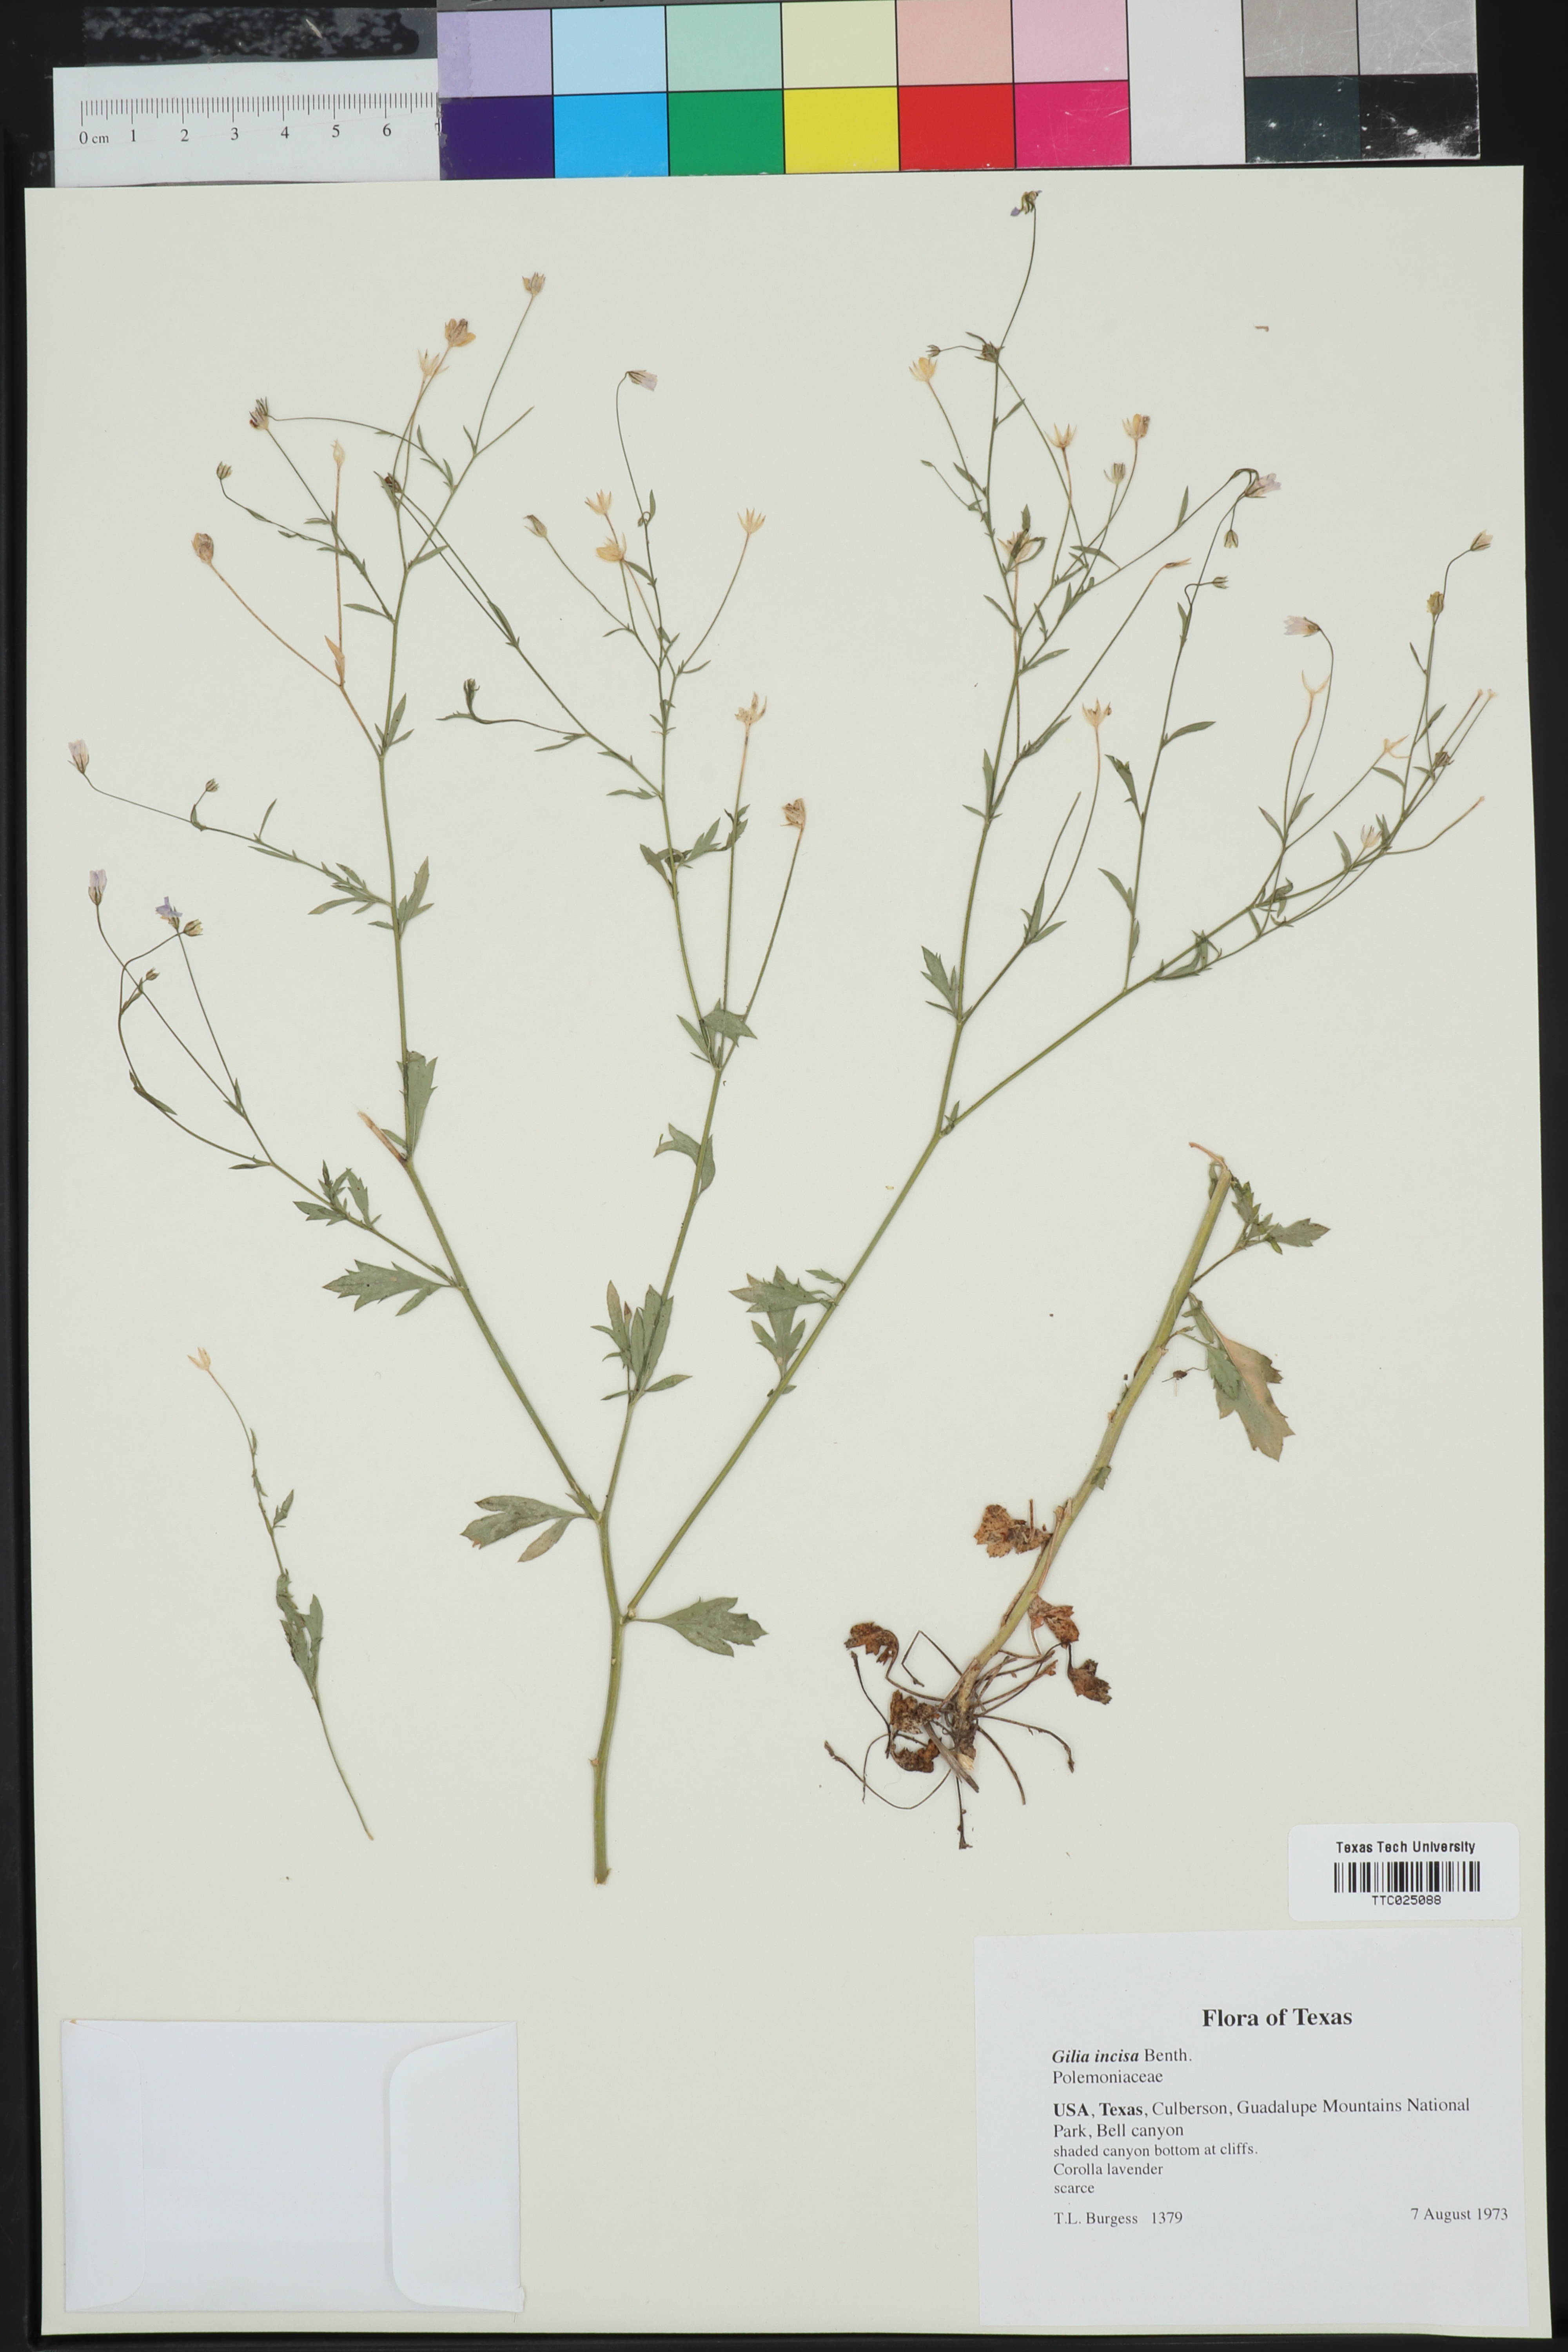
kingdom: Plantae
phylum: Tracheophyta
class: Magnoliopsida
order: Ericales
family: Polemoniaceae
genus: Giliastrum
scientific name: Giliastrum incisum
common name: Splitleaf gilia
